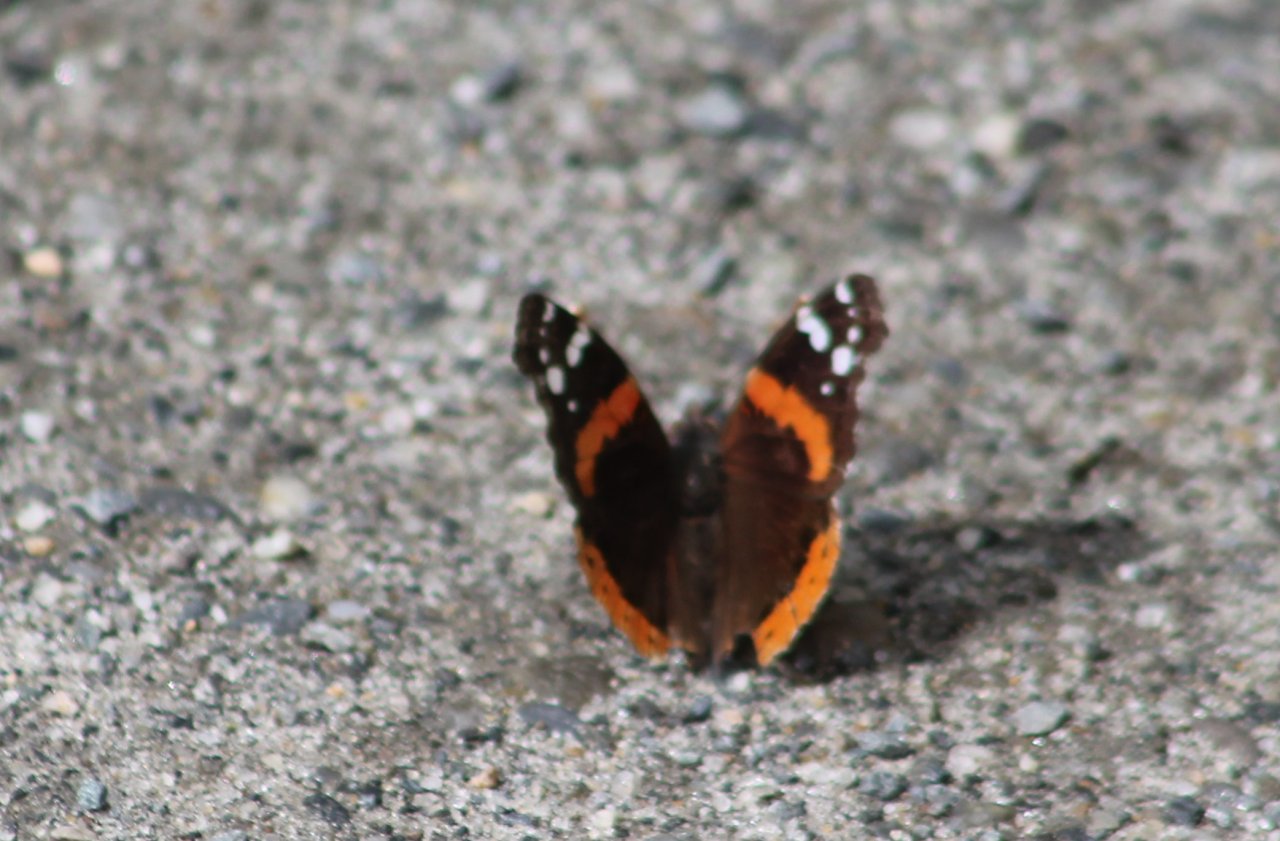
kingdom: Animalia
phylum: Arthropoda
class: Insecta
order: Lepidoptera
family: Nymphalidae
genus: Vanessa
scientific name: Vanessa atalanta
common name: Red Admiral
